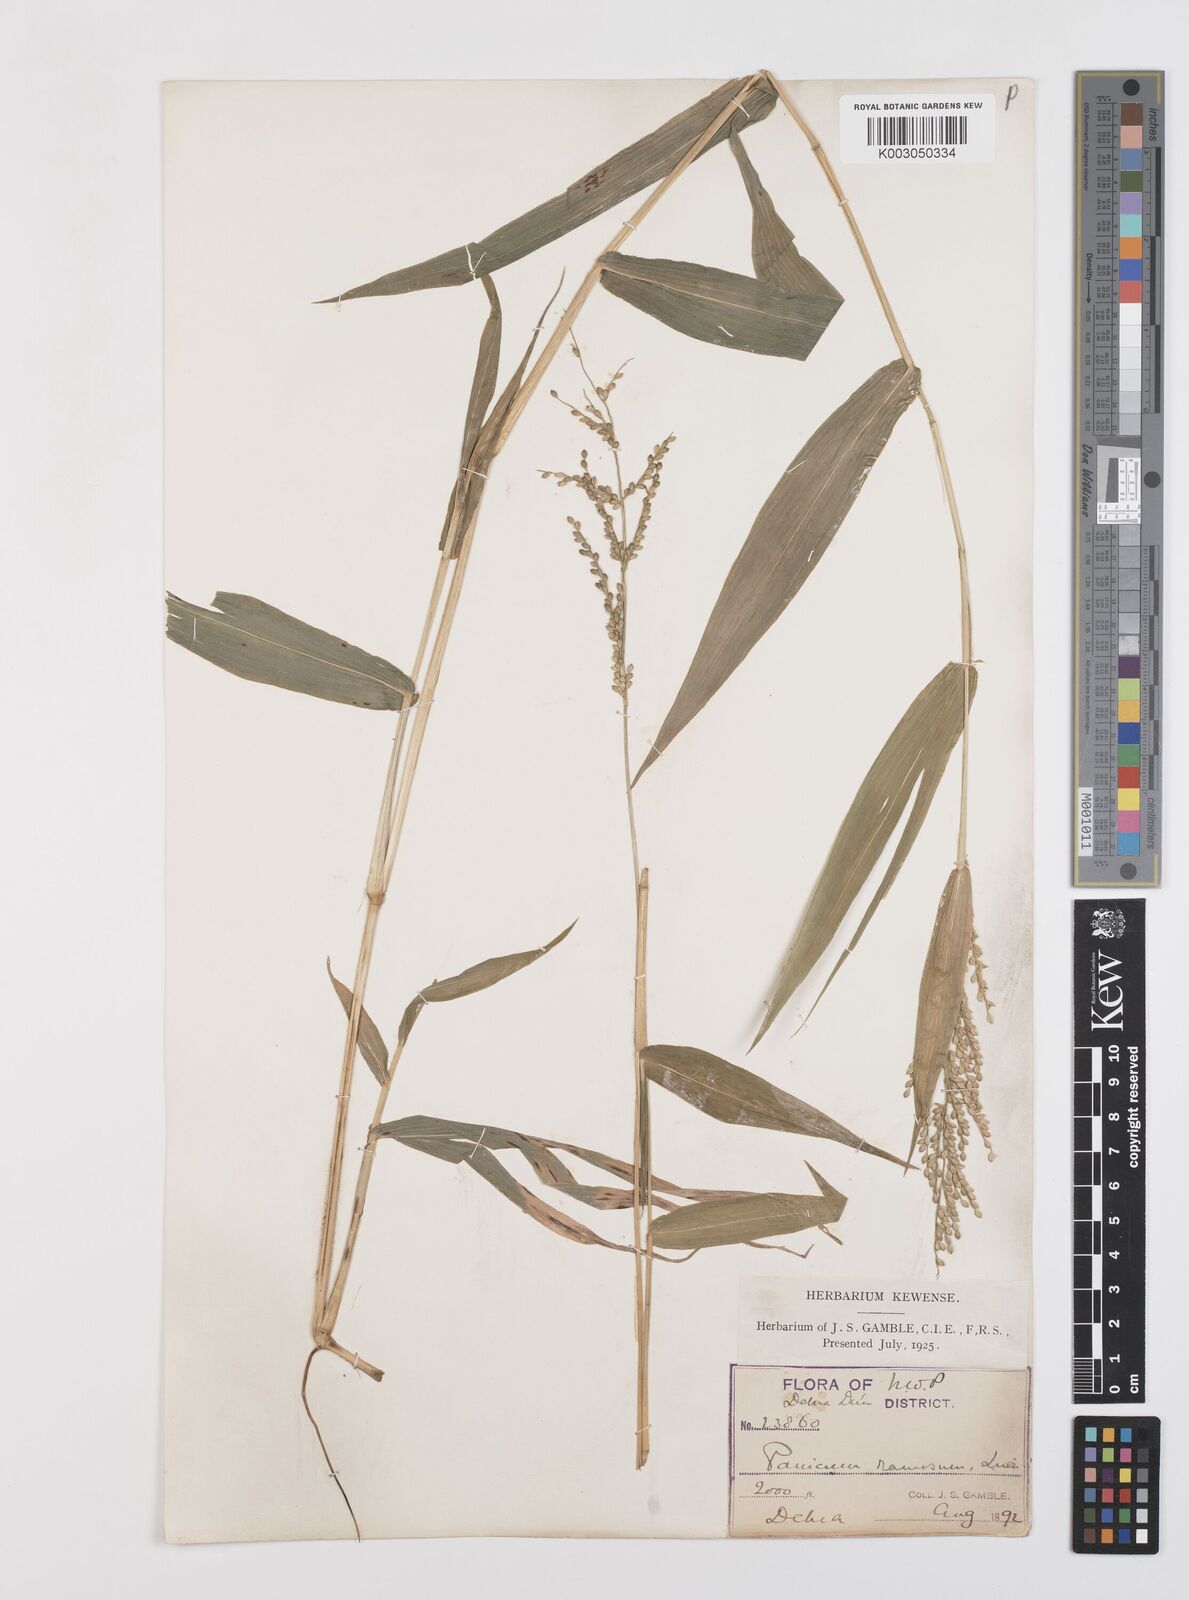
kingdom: Plantae
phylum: Tracheophyta
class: Liliopsida
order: Poales
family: Poaceae
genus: Urochloa
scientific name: Urochloa ramosa
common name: Browntop millet
